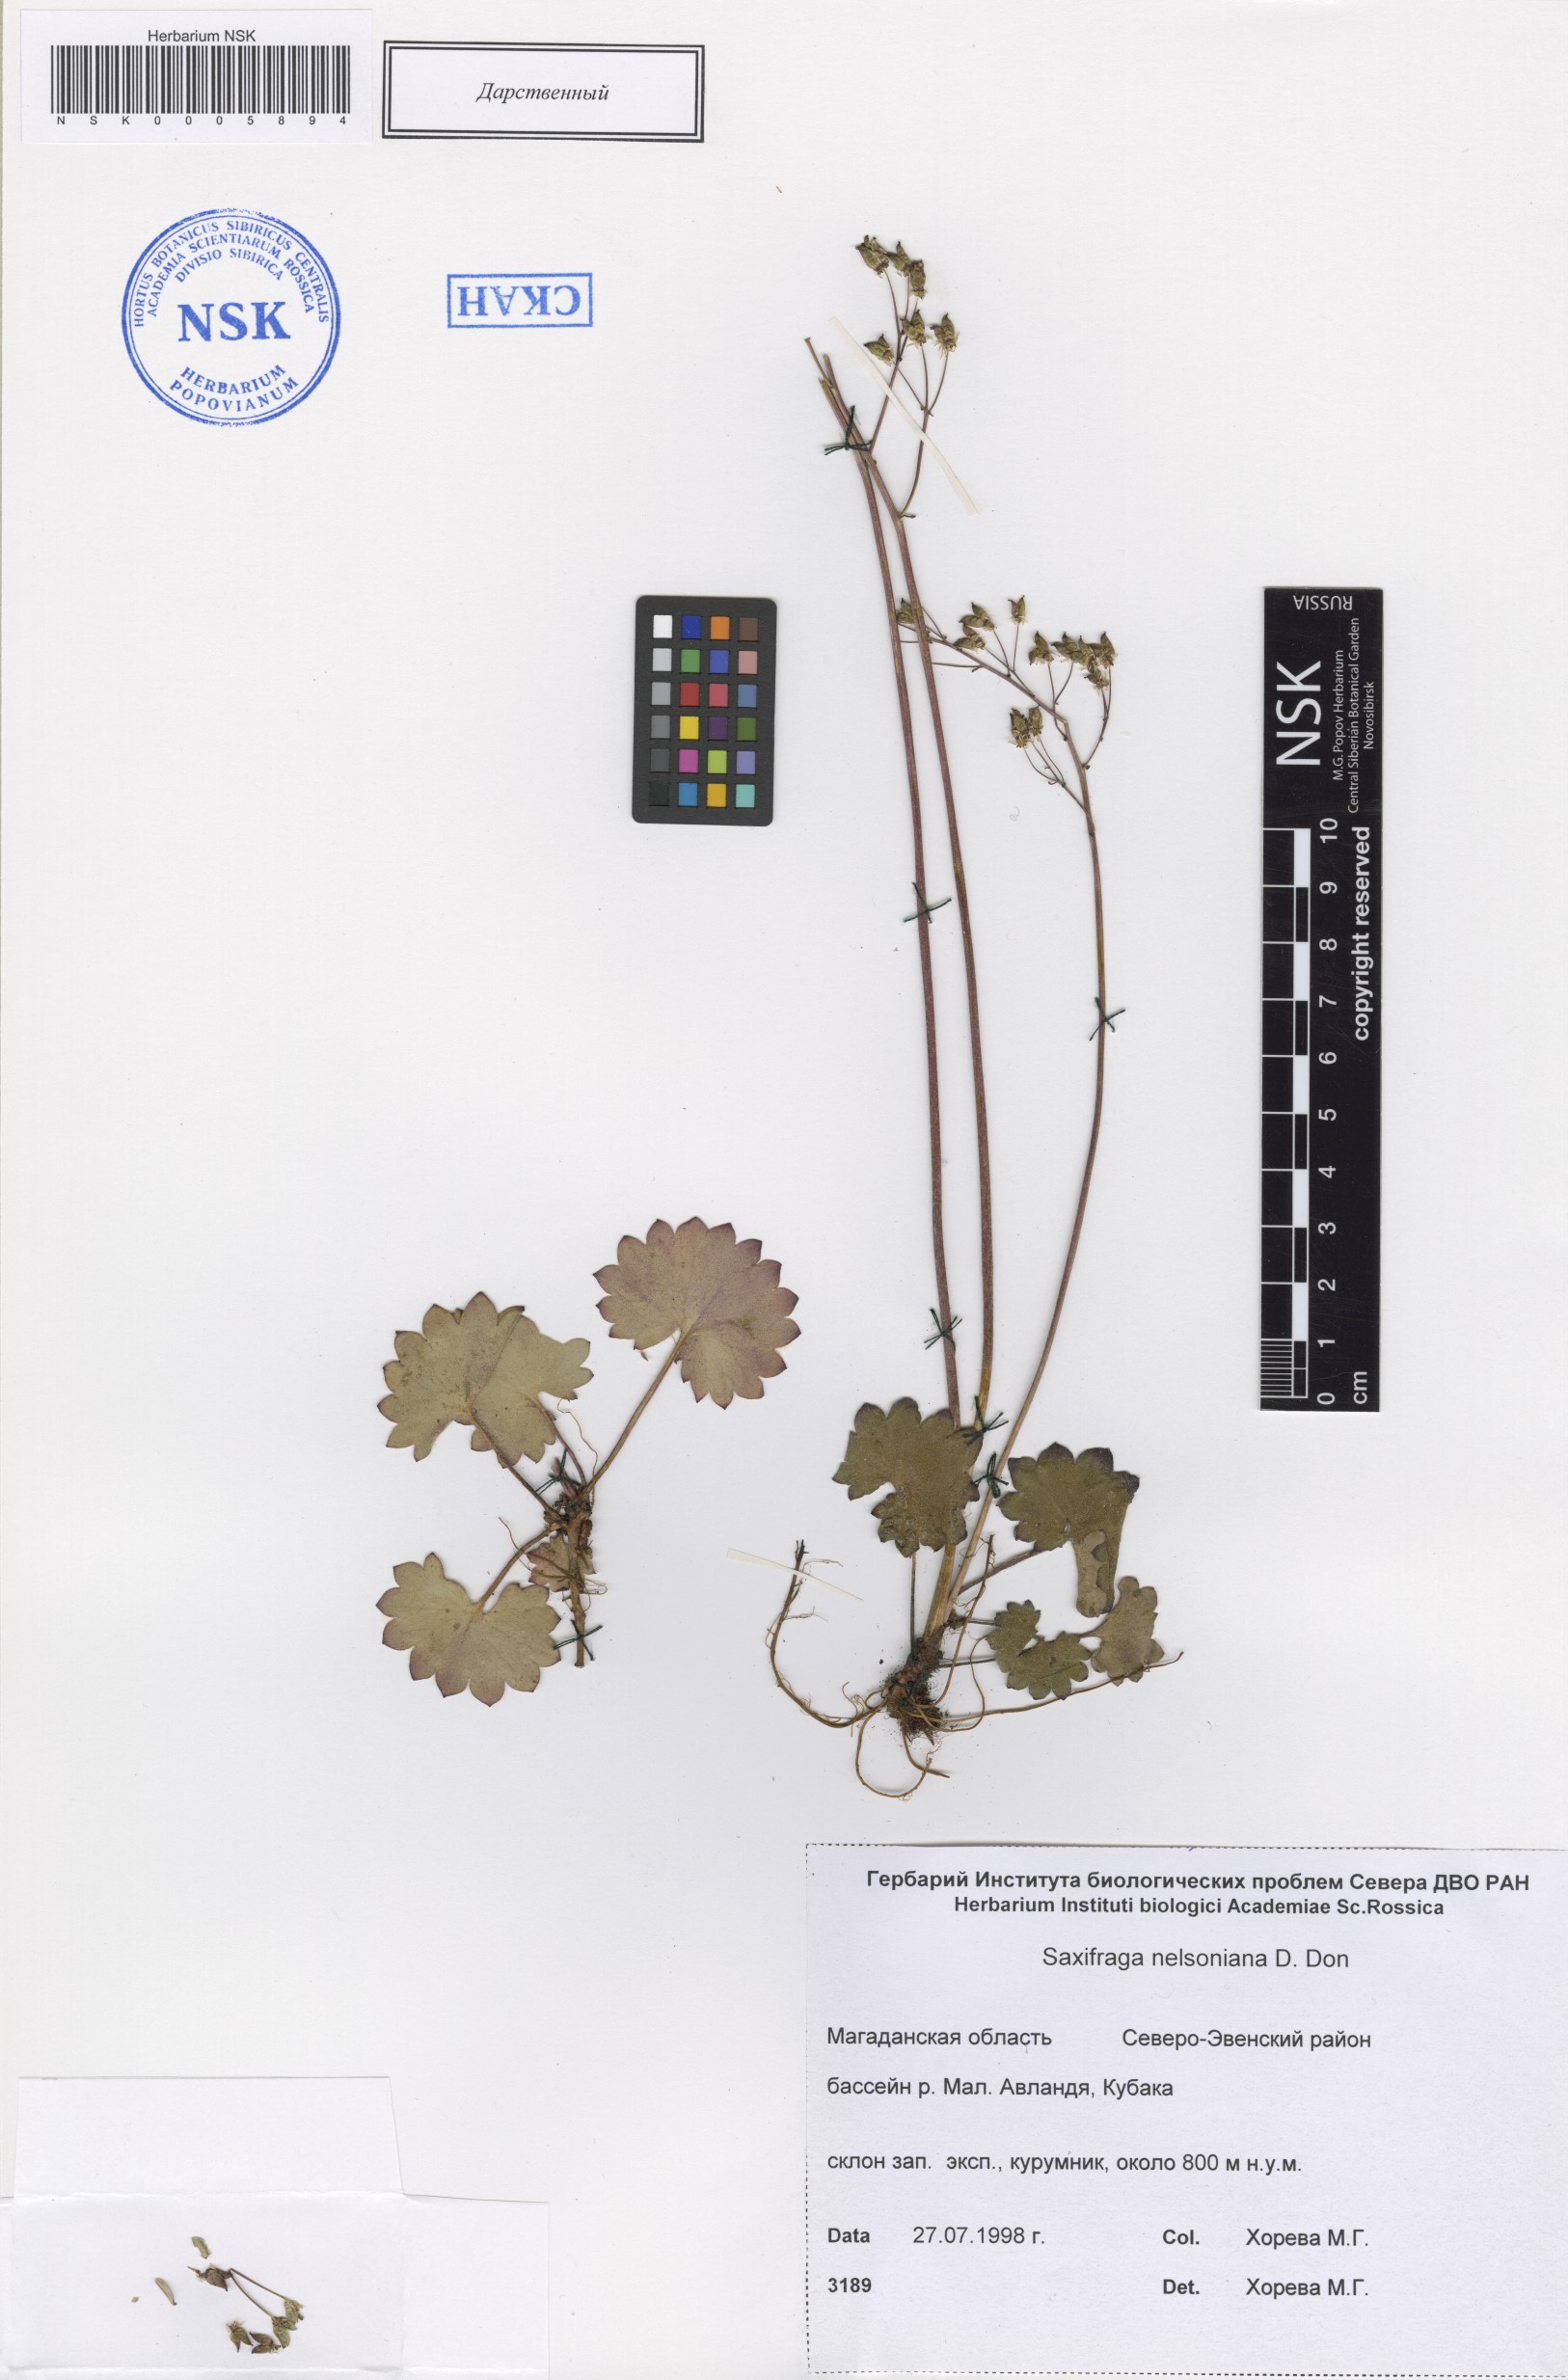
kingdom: Plantae
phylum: Tracheophyta
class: Magnoliopsida
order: Saxifragales
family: Saxifragaceae
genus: Micranthes
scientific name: Micranthes nelsoniana
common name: Nelson's saxifrage
